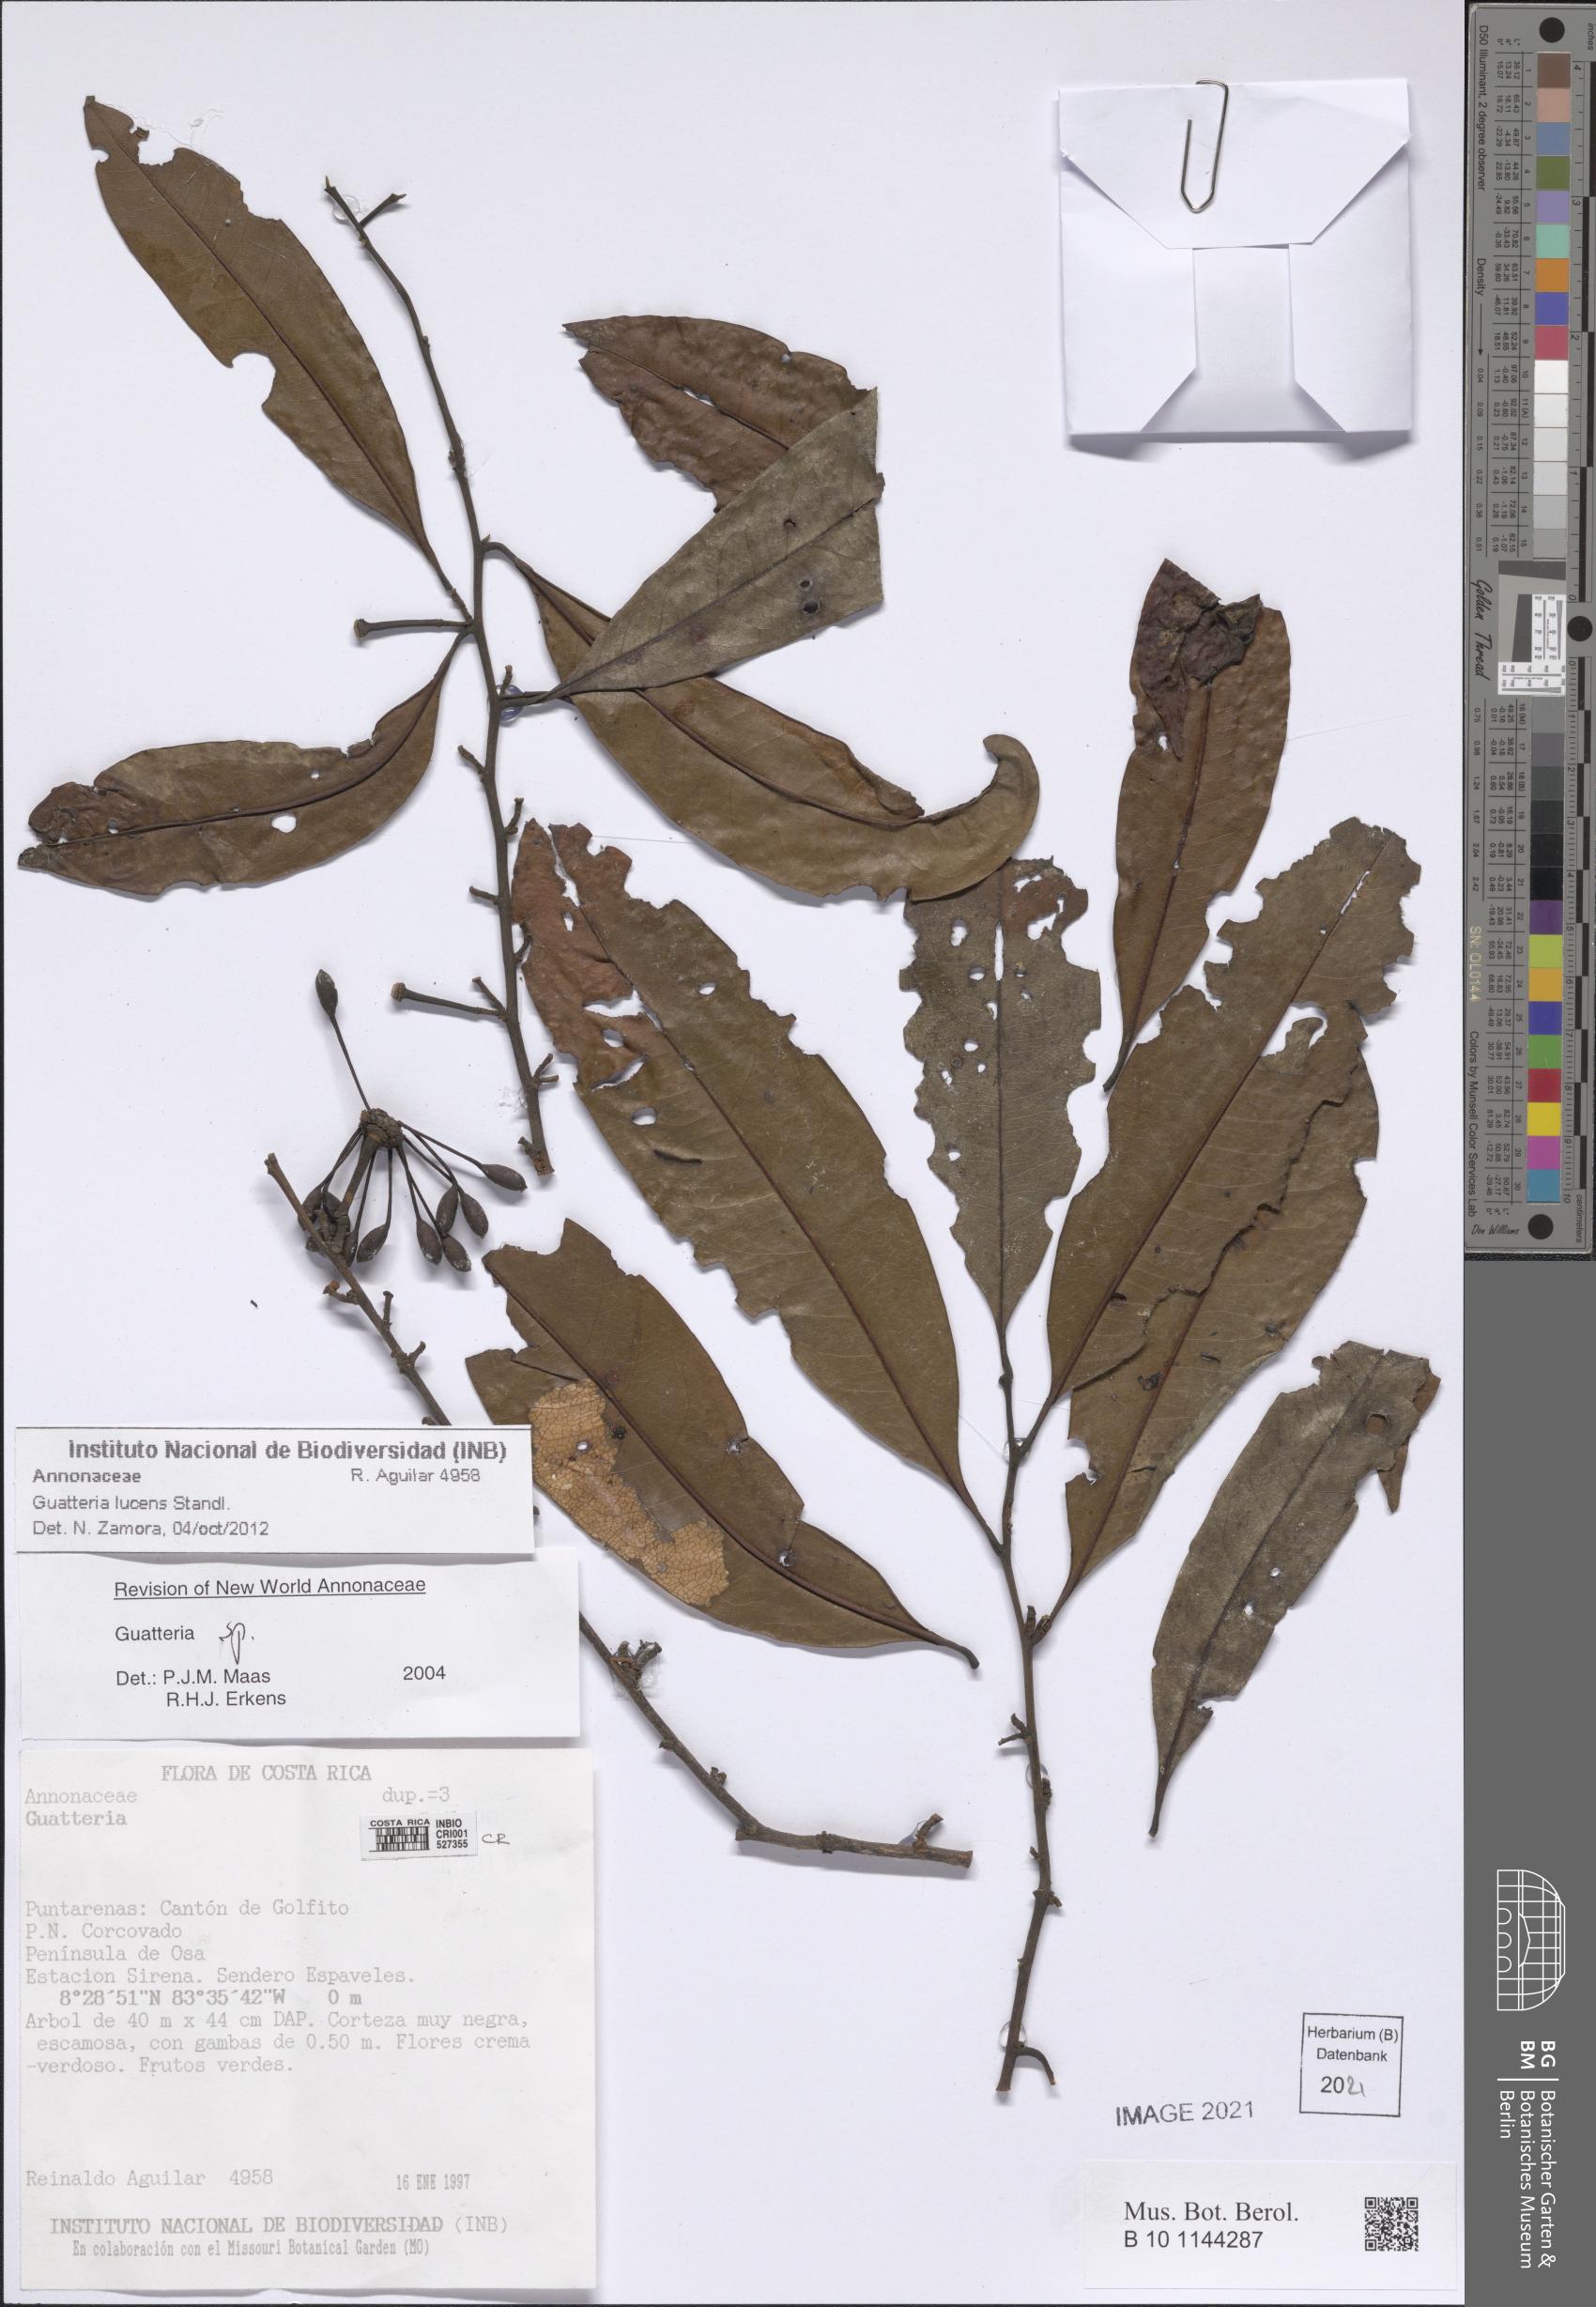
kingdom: Plantae
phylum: Tracheophyta
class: Magnoliopsida
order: Magnoliales
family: Annonaceae
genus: Guatteria
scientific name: Guatteria lucens
